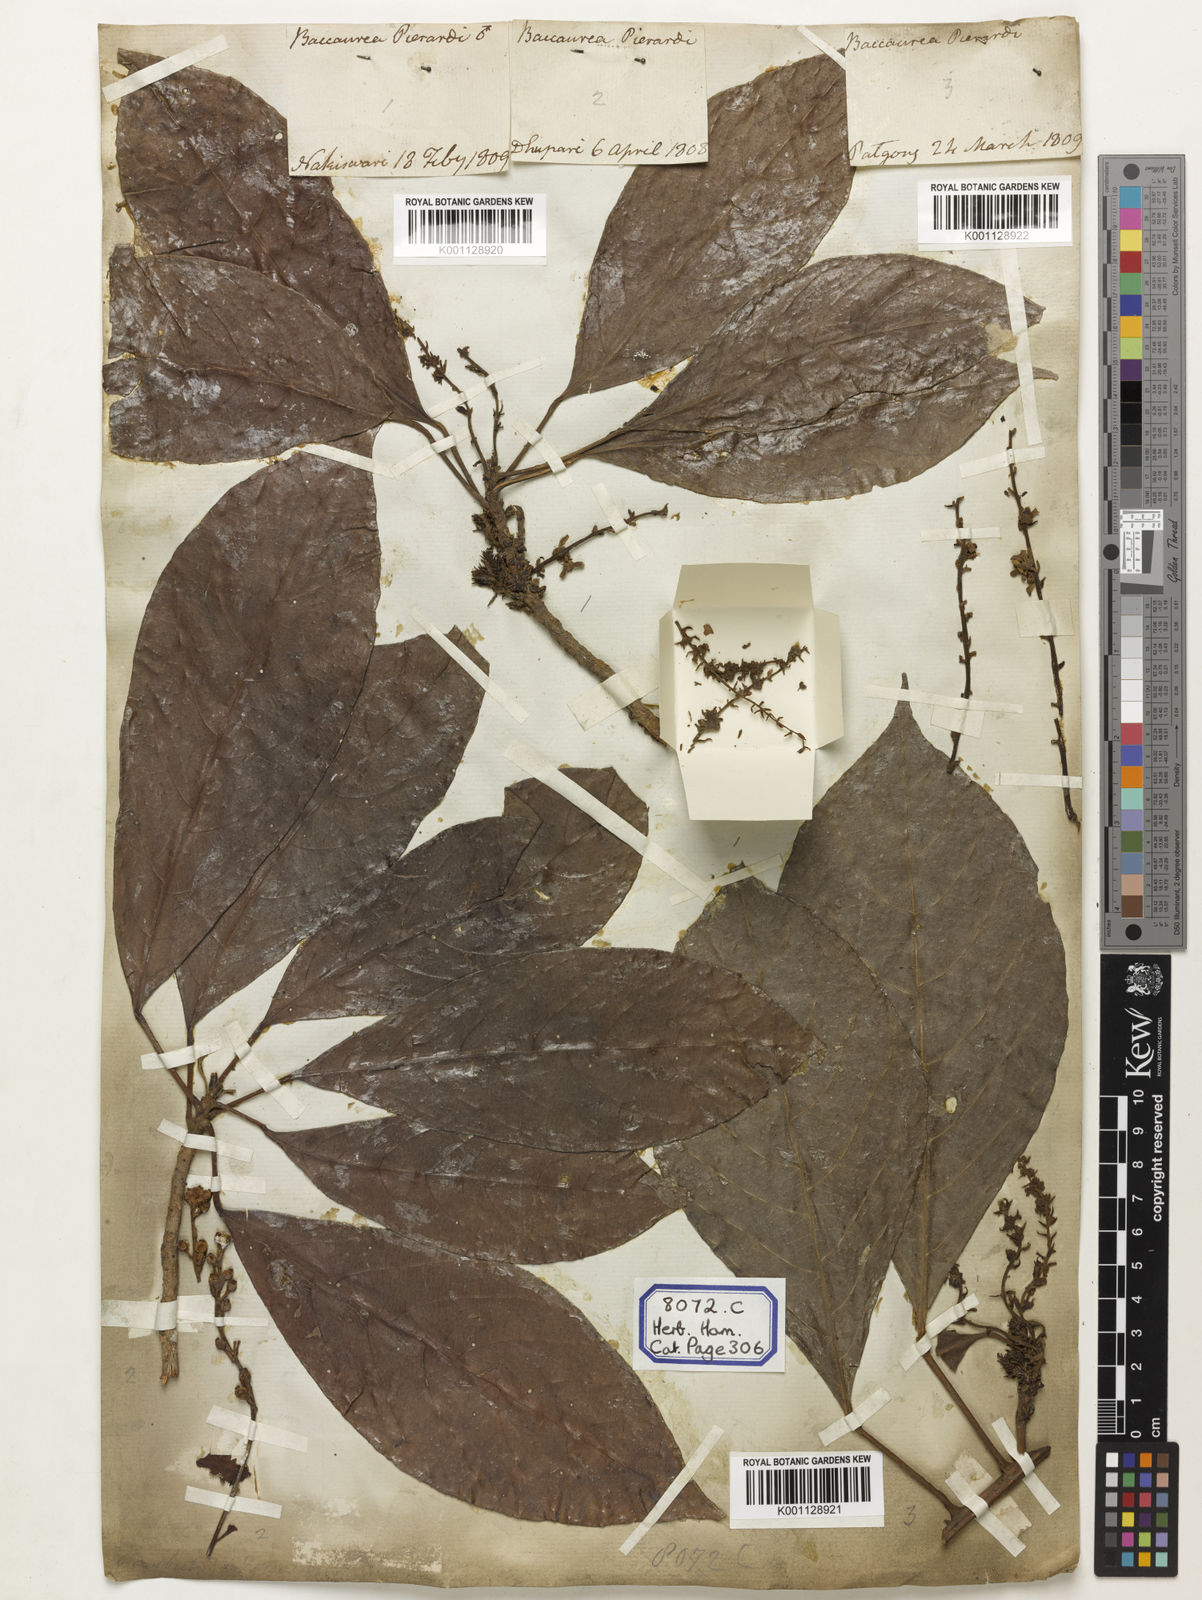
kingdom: Plantae
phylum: Tracheophyta
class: Magnoliopsida
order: Malpighiales
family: Phyllanthaceae
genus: Baccaurea
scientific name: Baccaurea ramiflora
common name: Baccaurea
